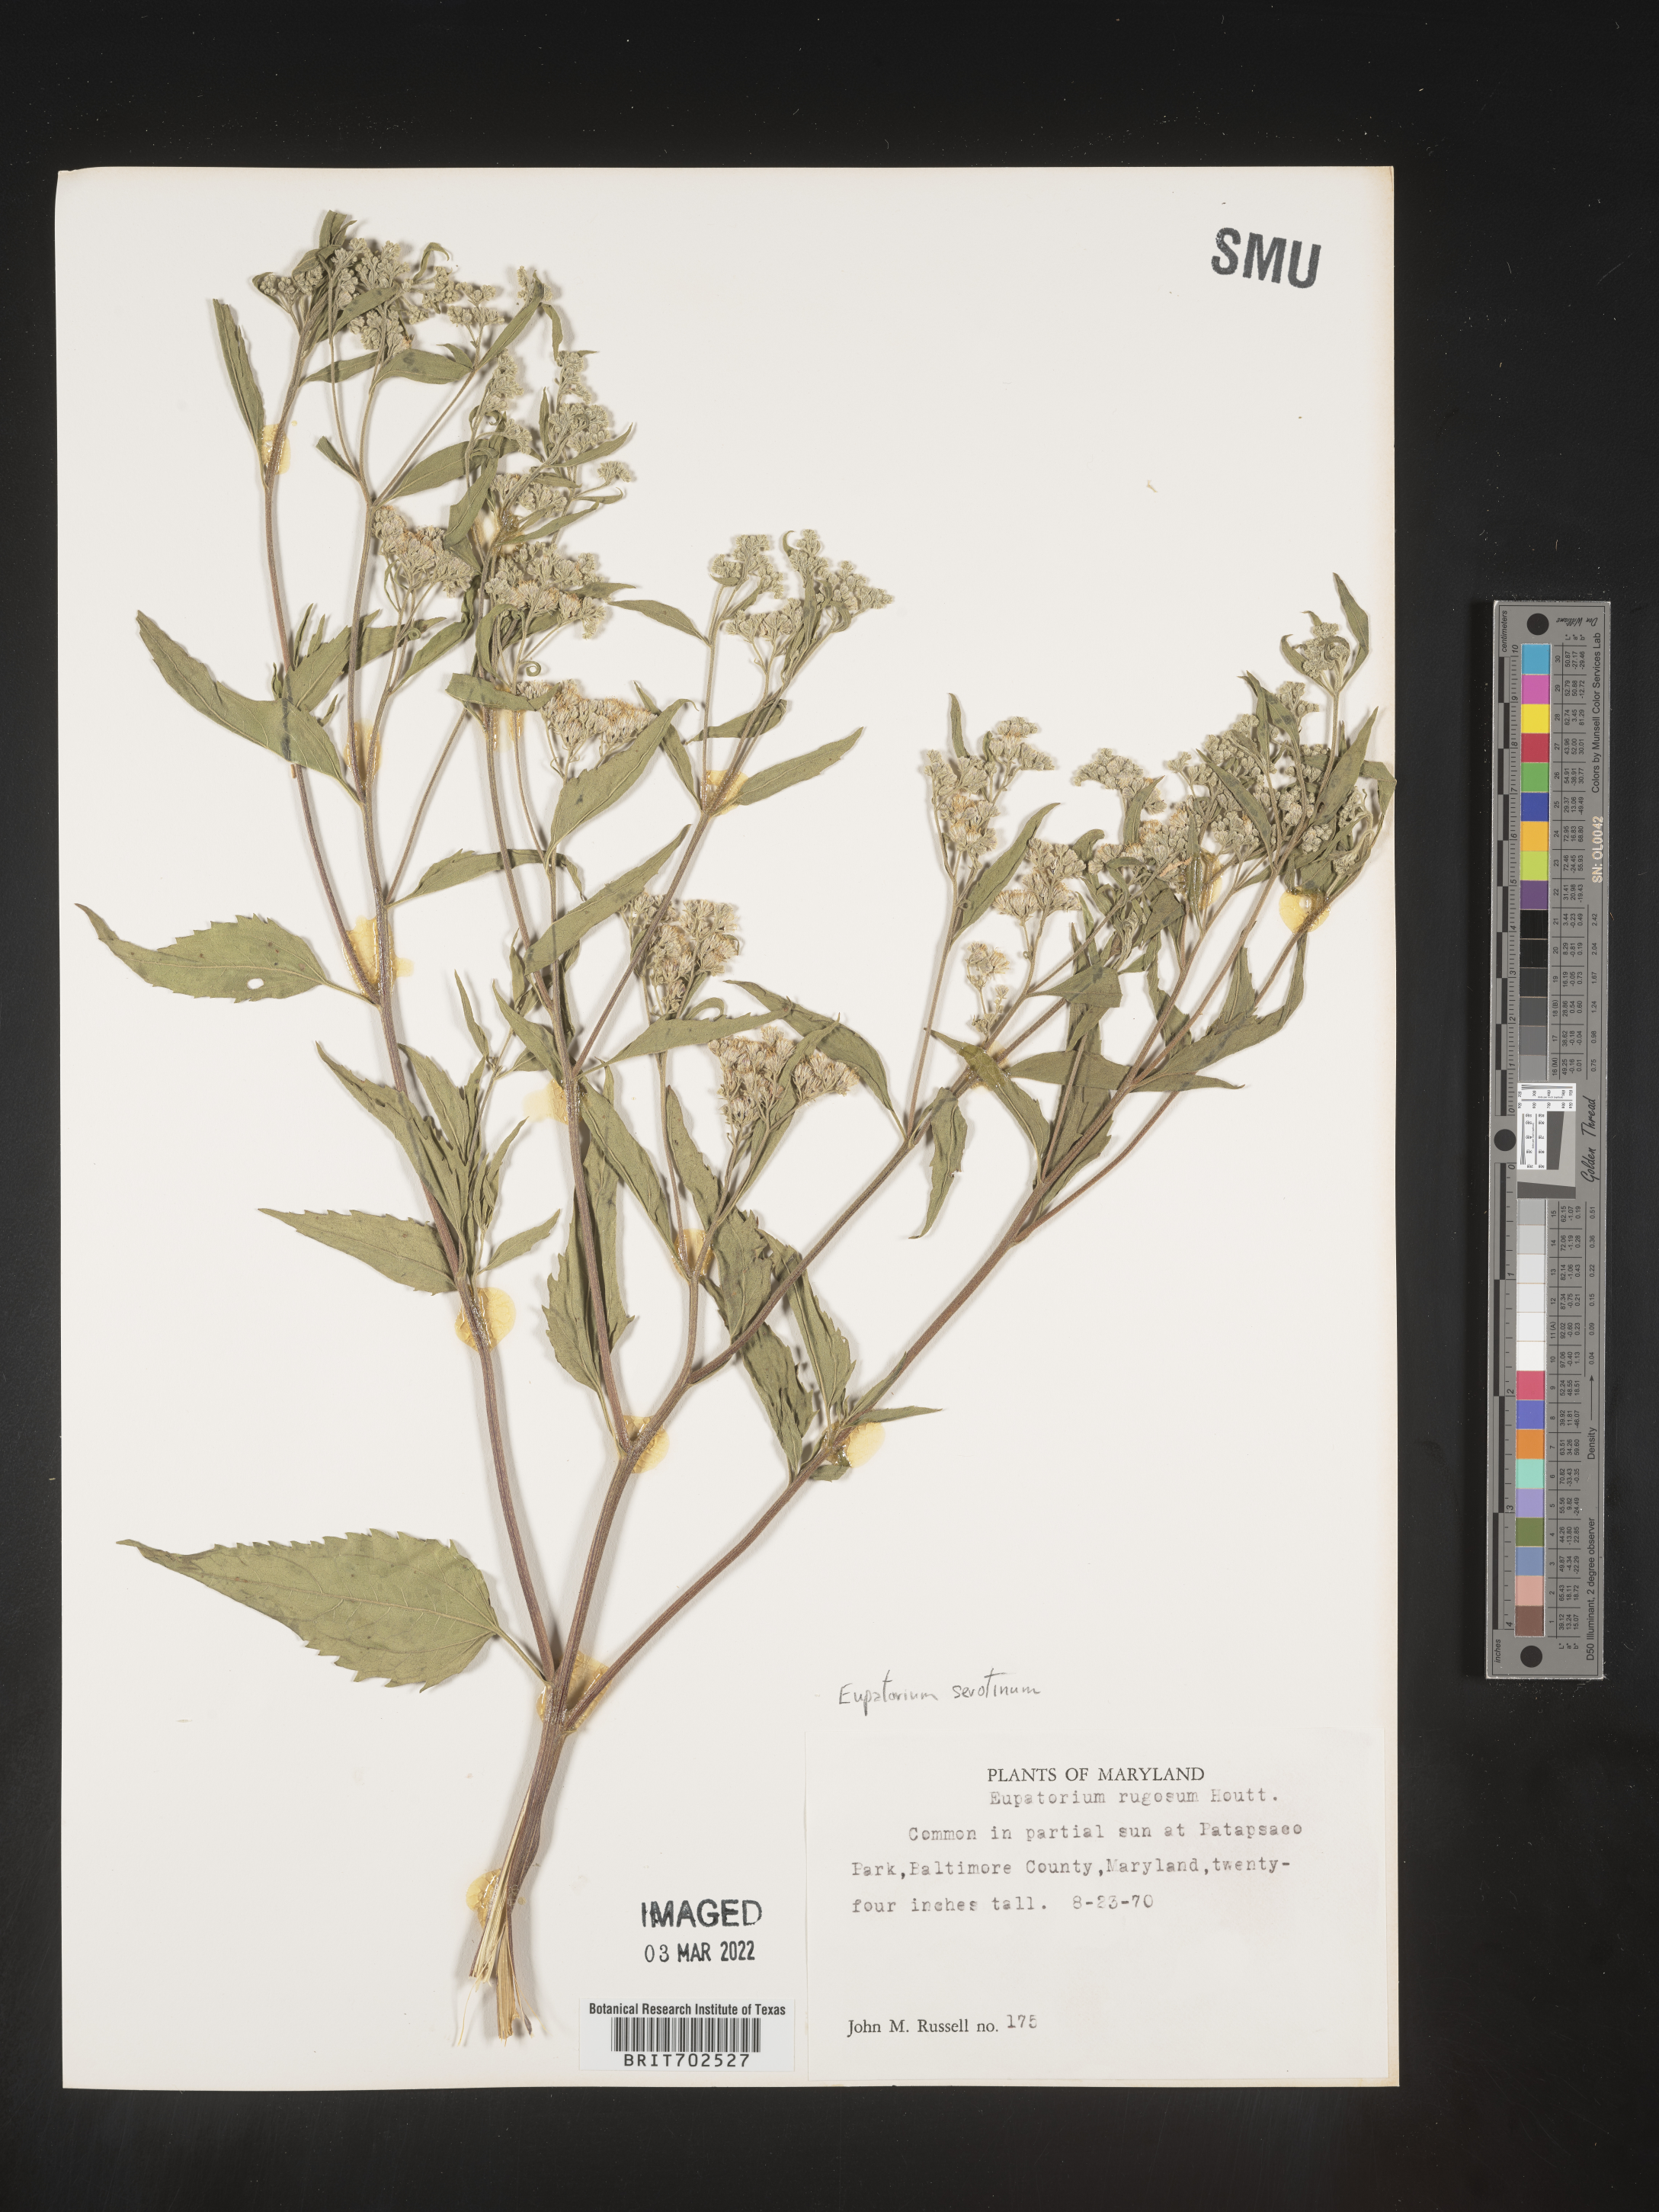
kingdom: Plantae
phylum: Tracheophyta
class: Magnoliopsida
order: Asterales
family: Asteraceae
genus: Eupatorium
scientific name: Eupatorium serotinum
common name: Late boneset
